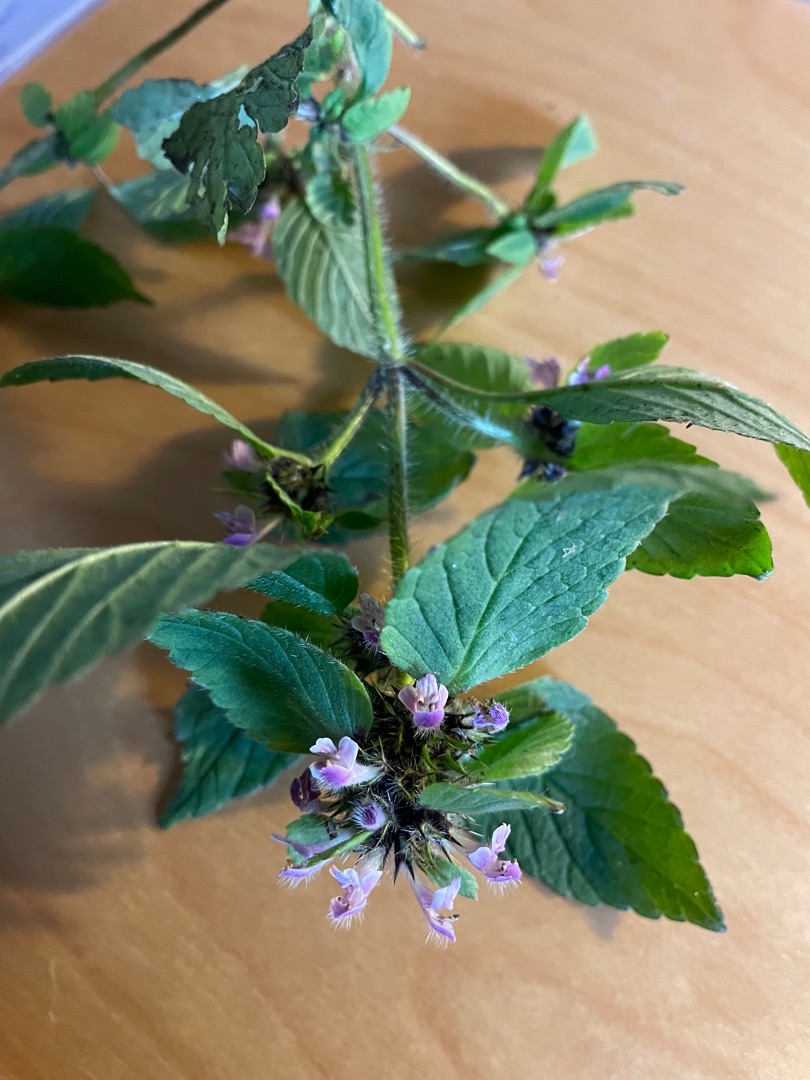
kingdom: Plantae
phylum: Tracheophyta
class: Magnoliopsida
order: Lamiales
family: Lamiaceae
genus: Galeopsis
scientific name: Galeopsis bifida
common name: Skov-hanekro
